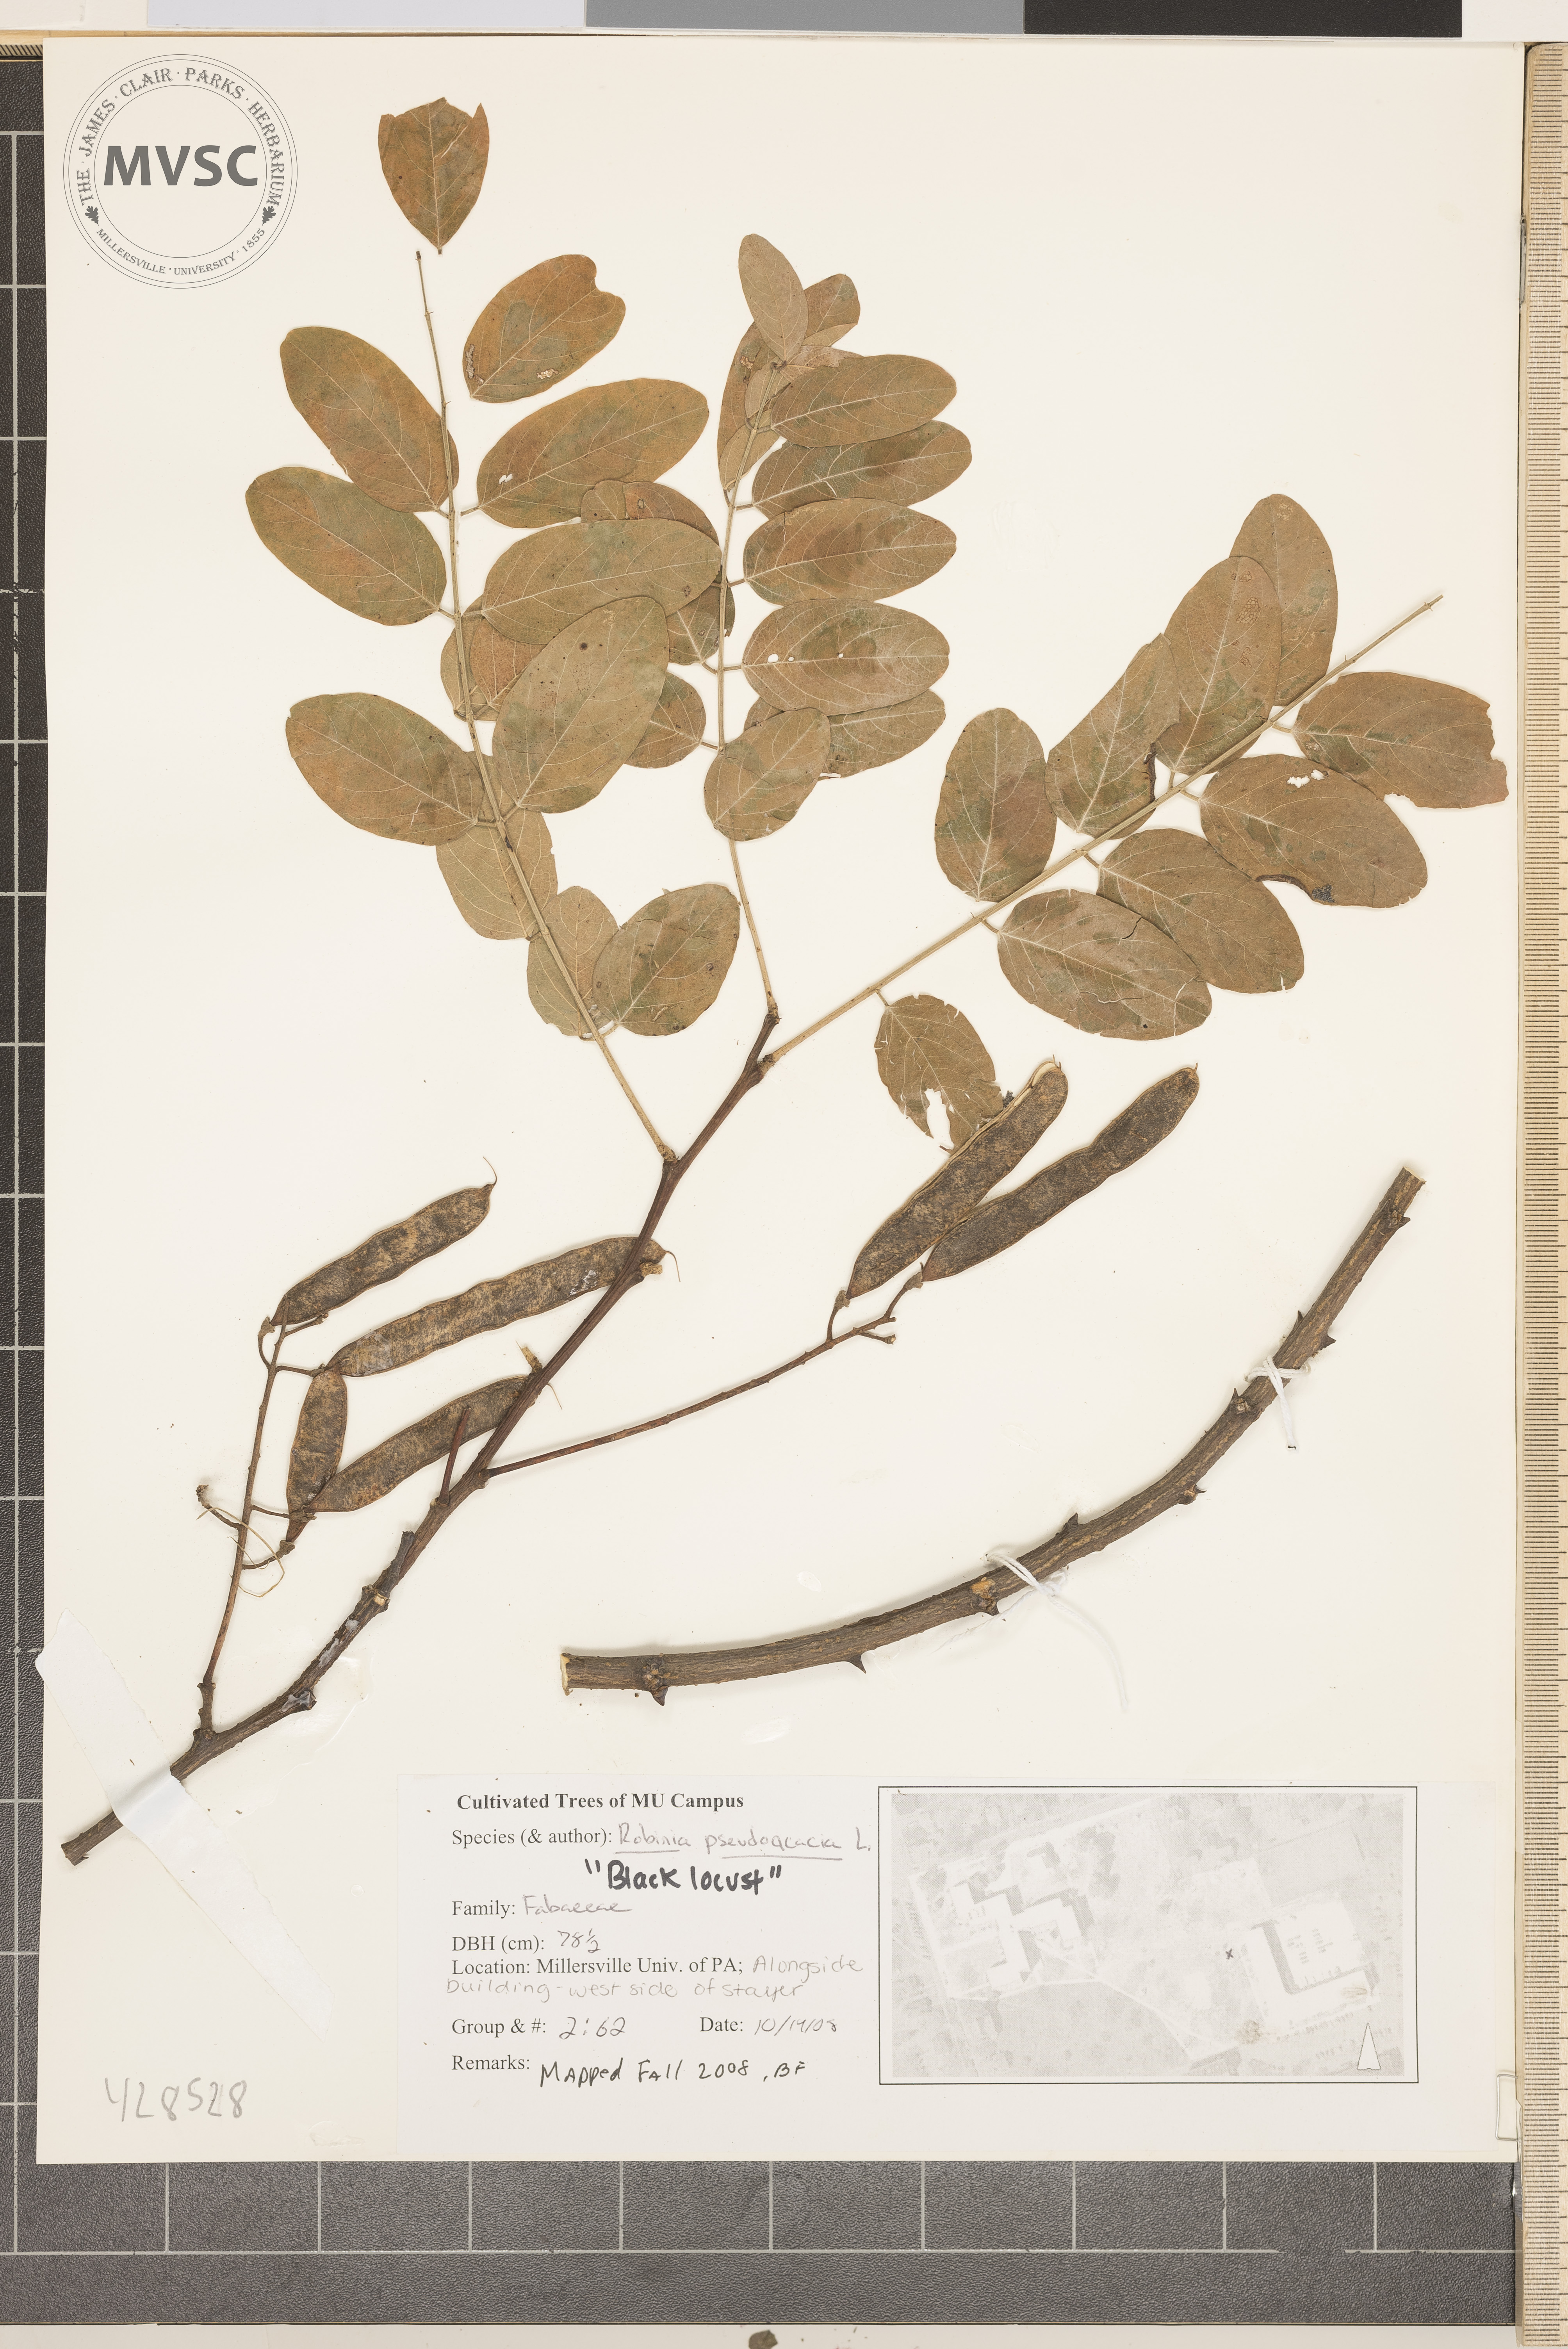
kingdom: Plantae
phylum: Tracheophyta
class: Magnoliopsida
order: Fabales
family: Fabaceae
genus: Robinia
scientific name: Robinia pseudoacacia
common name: Black Locust
